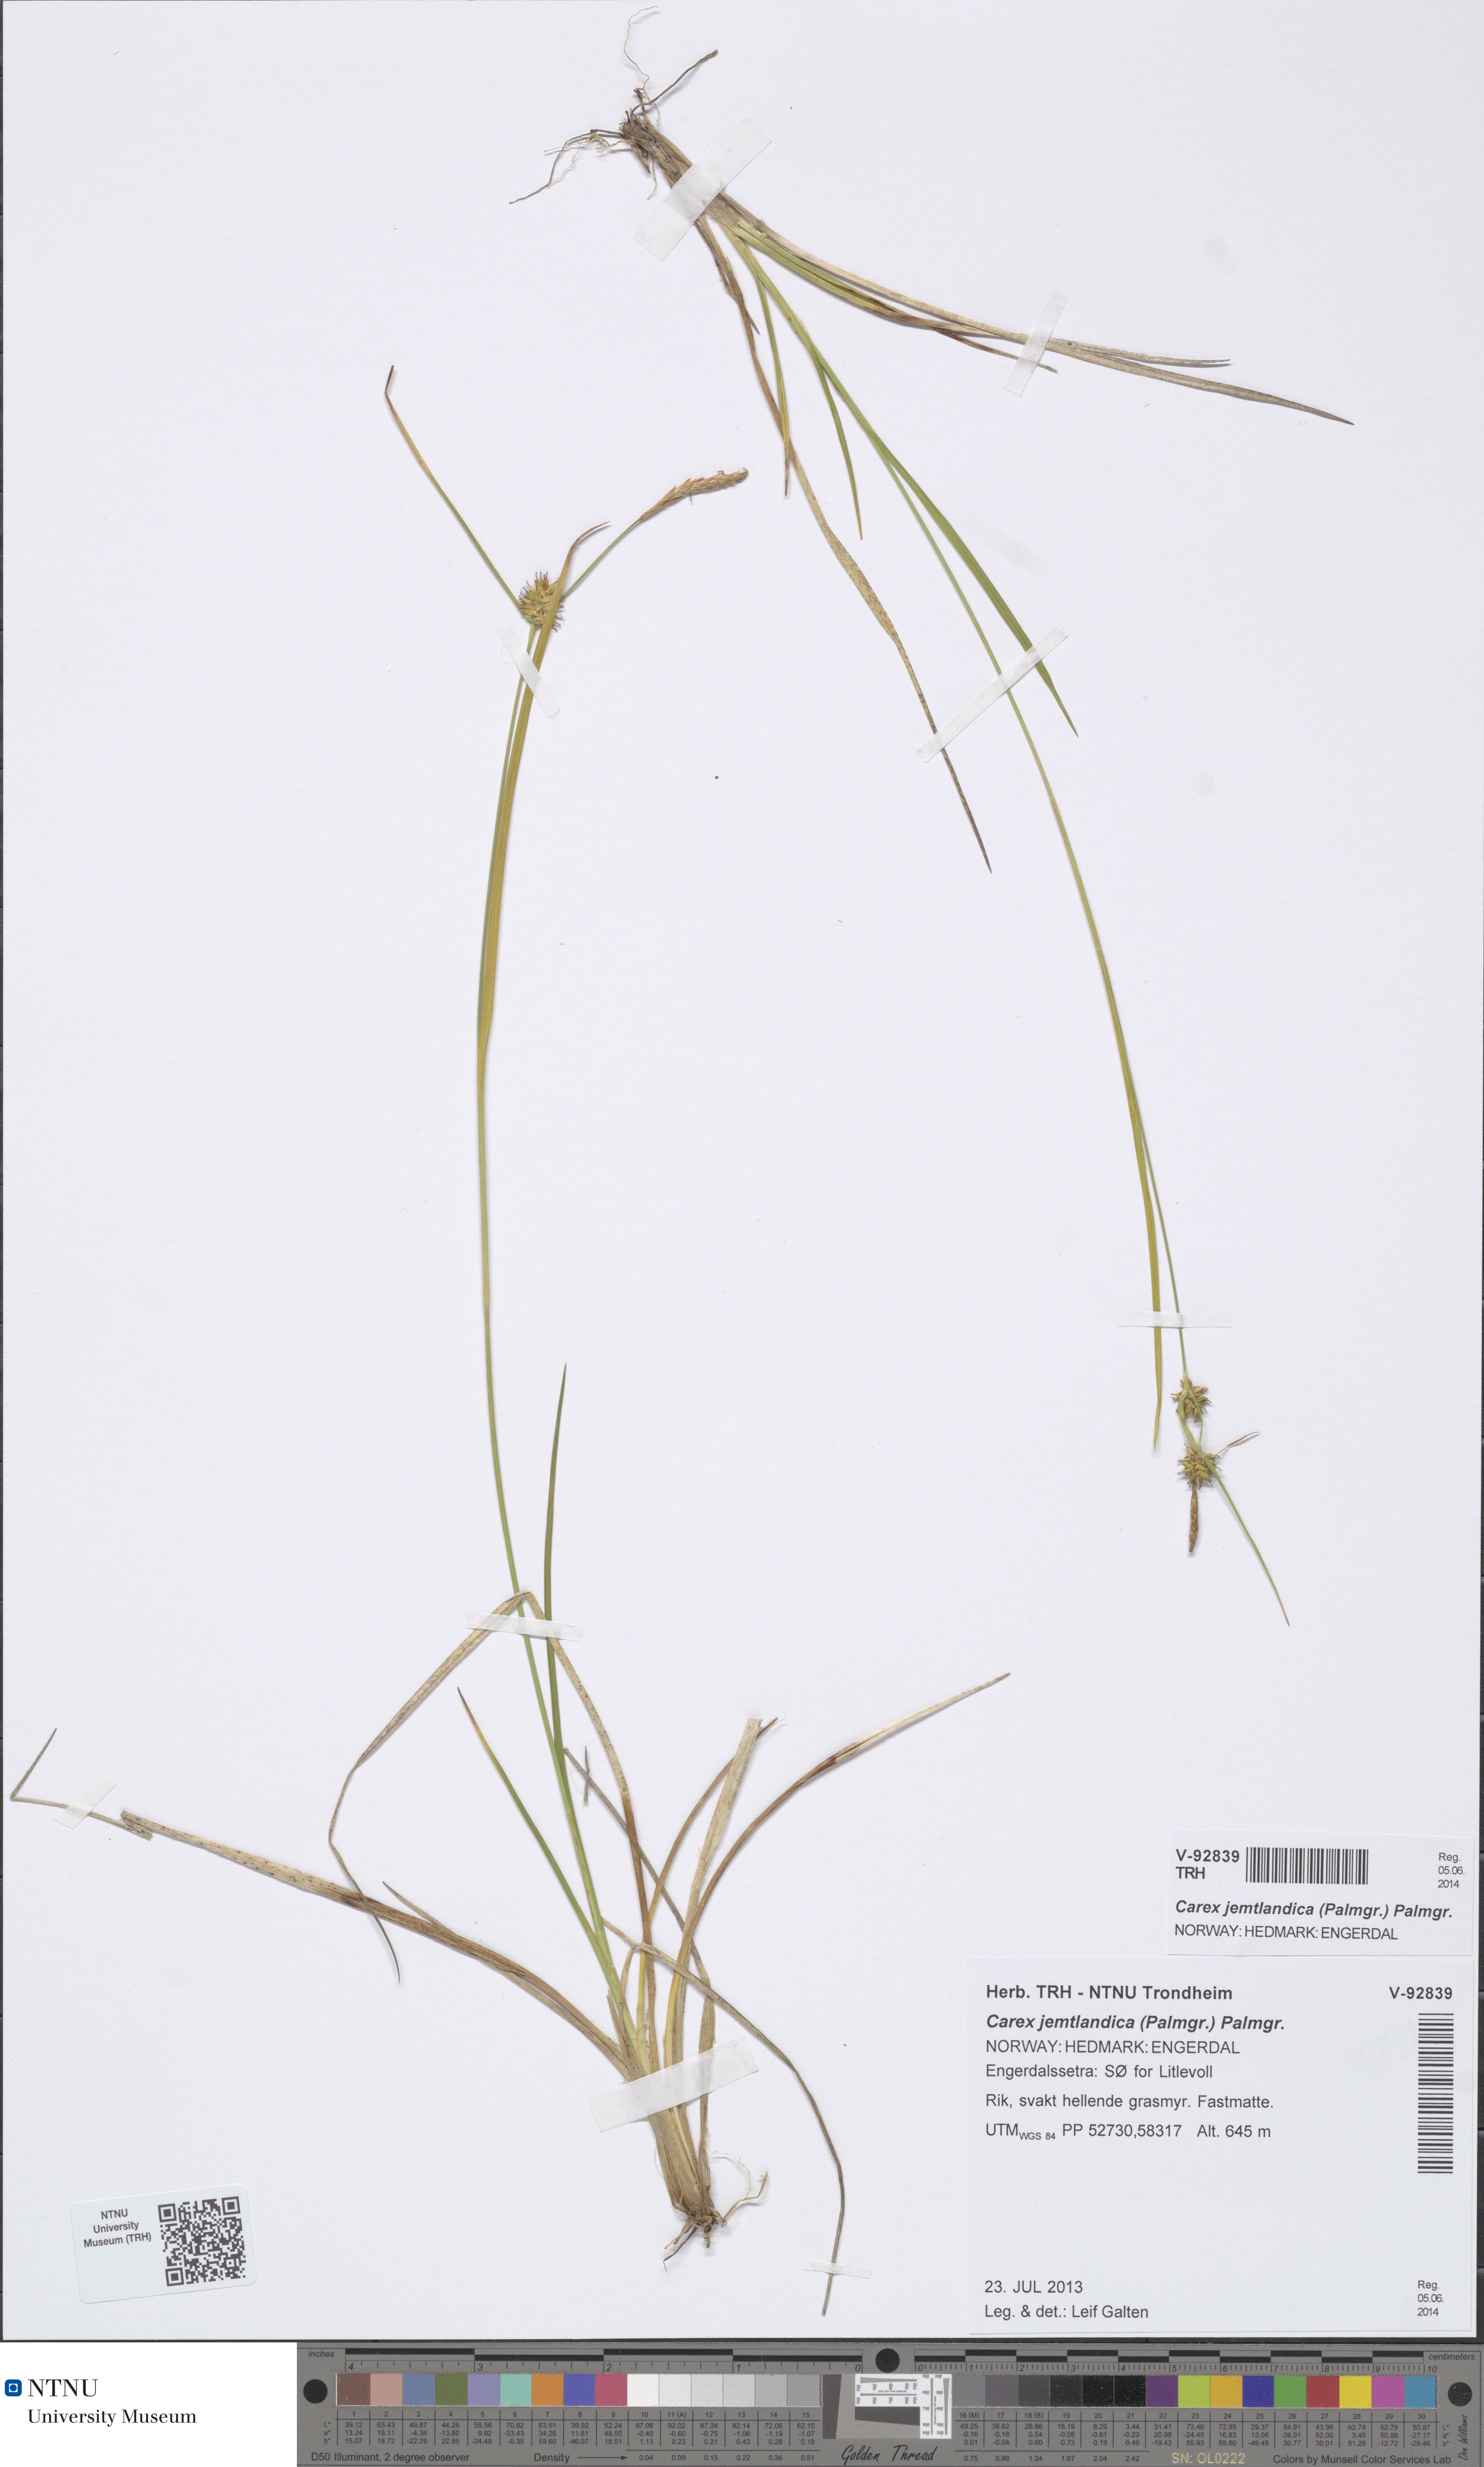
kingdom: Plantae
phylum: Tracheophyta
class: Liliopsida
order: Poales
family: Cyperaceae
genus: Carex
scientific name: Carex lepidocarpa
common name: Long-stalked yellow-sedge
